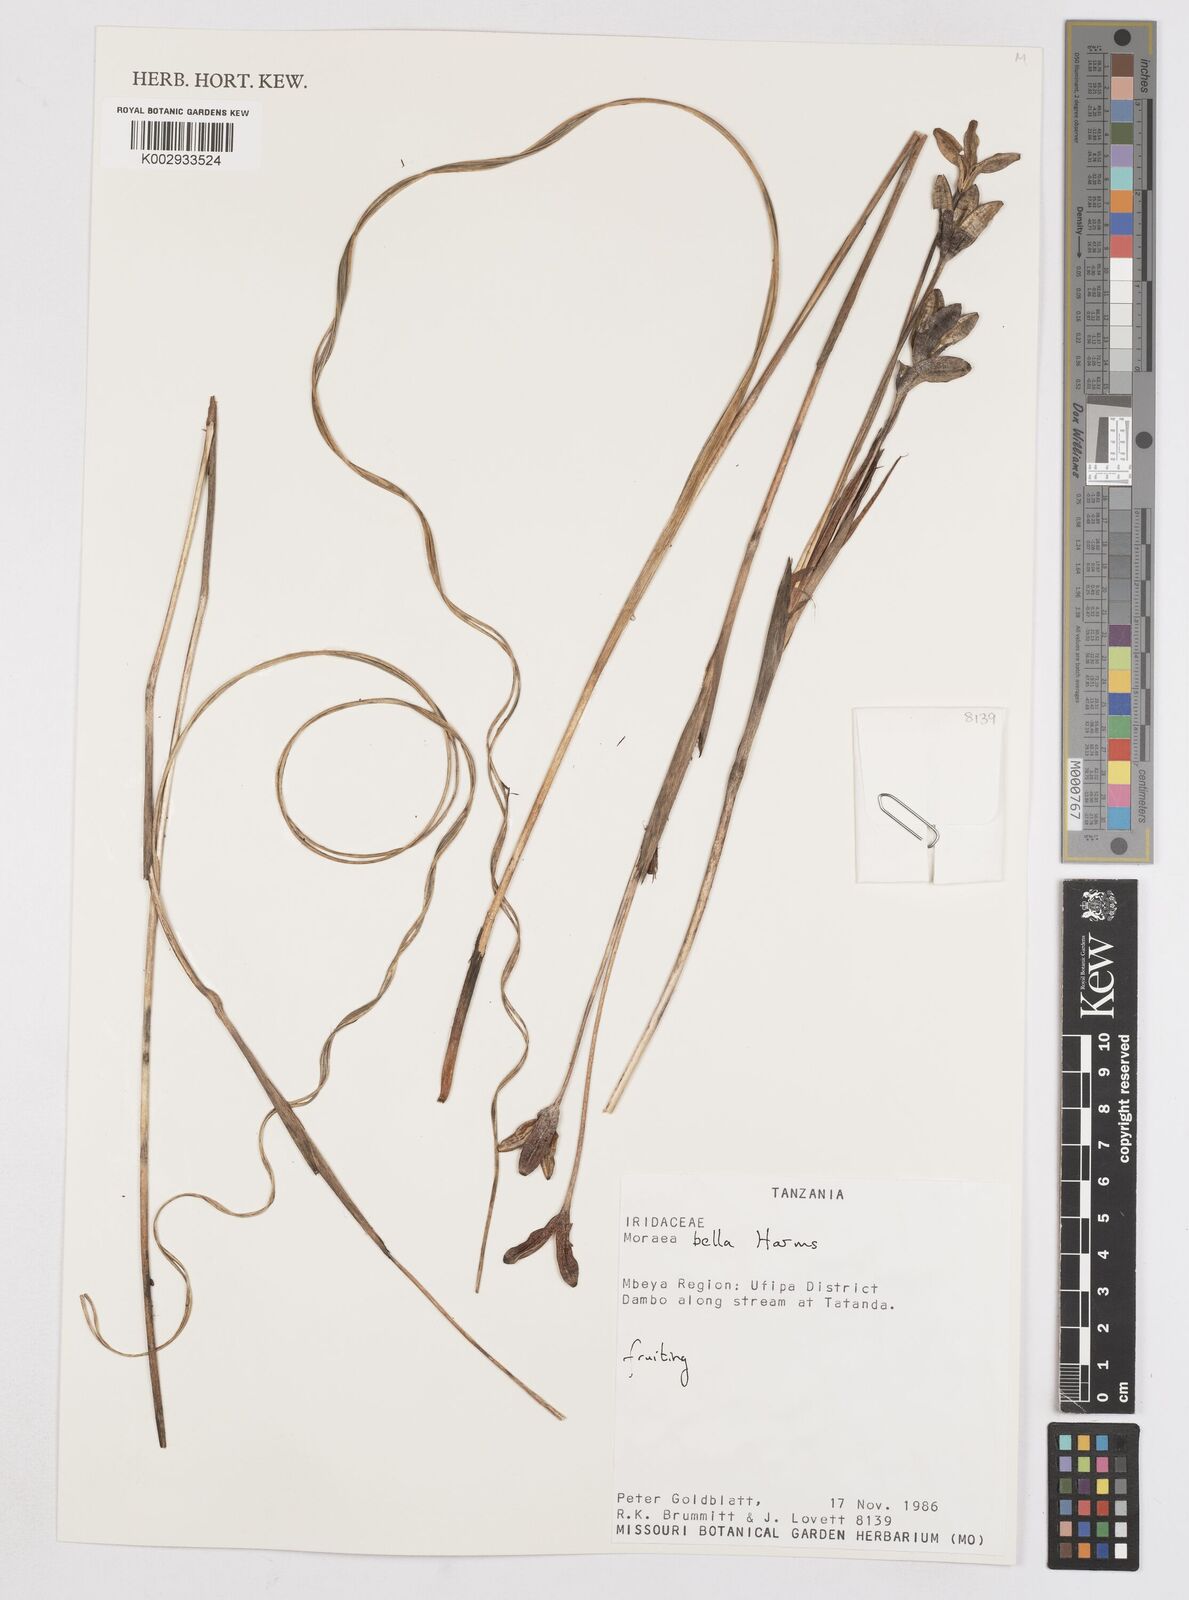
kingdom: Plantae
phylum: Tracheophyta
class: Liliopsida
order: Asparagales
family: Iridaceae
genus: Moraea
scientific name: Moraea bella
